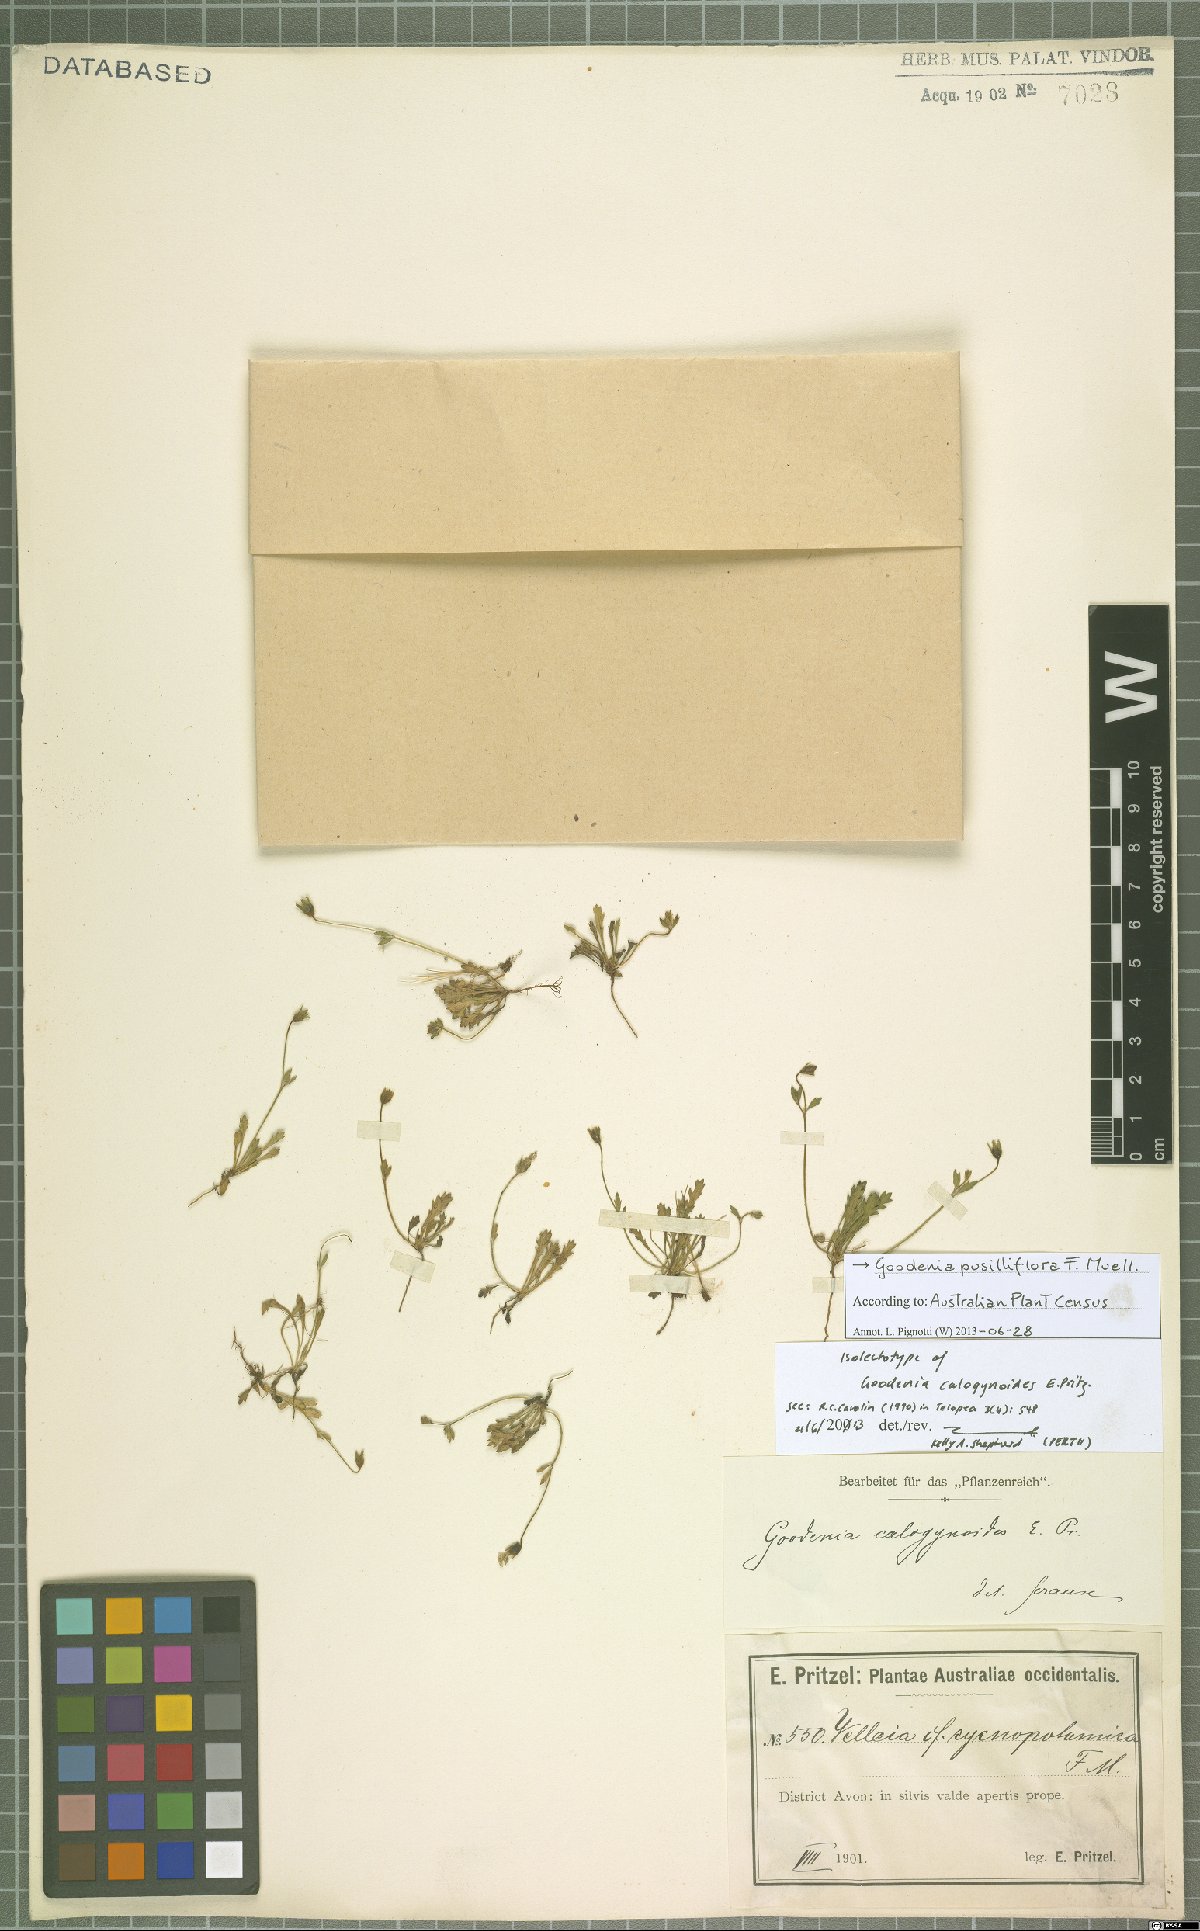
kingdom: Plantae
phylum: Tracheophyta
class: Magnoliopsida
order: Asterales
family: Goodeniaceae
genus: Goodenia
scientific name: Goodenia pusilliflora
